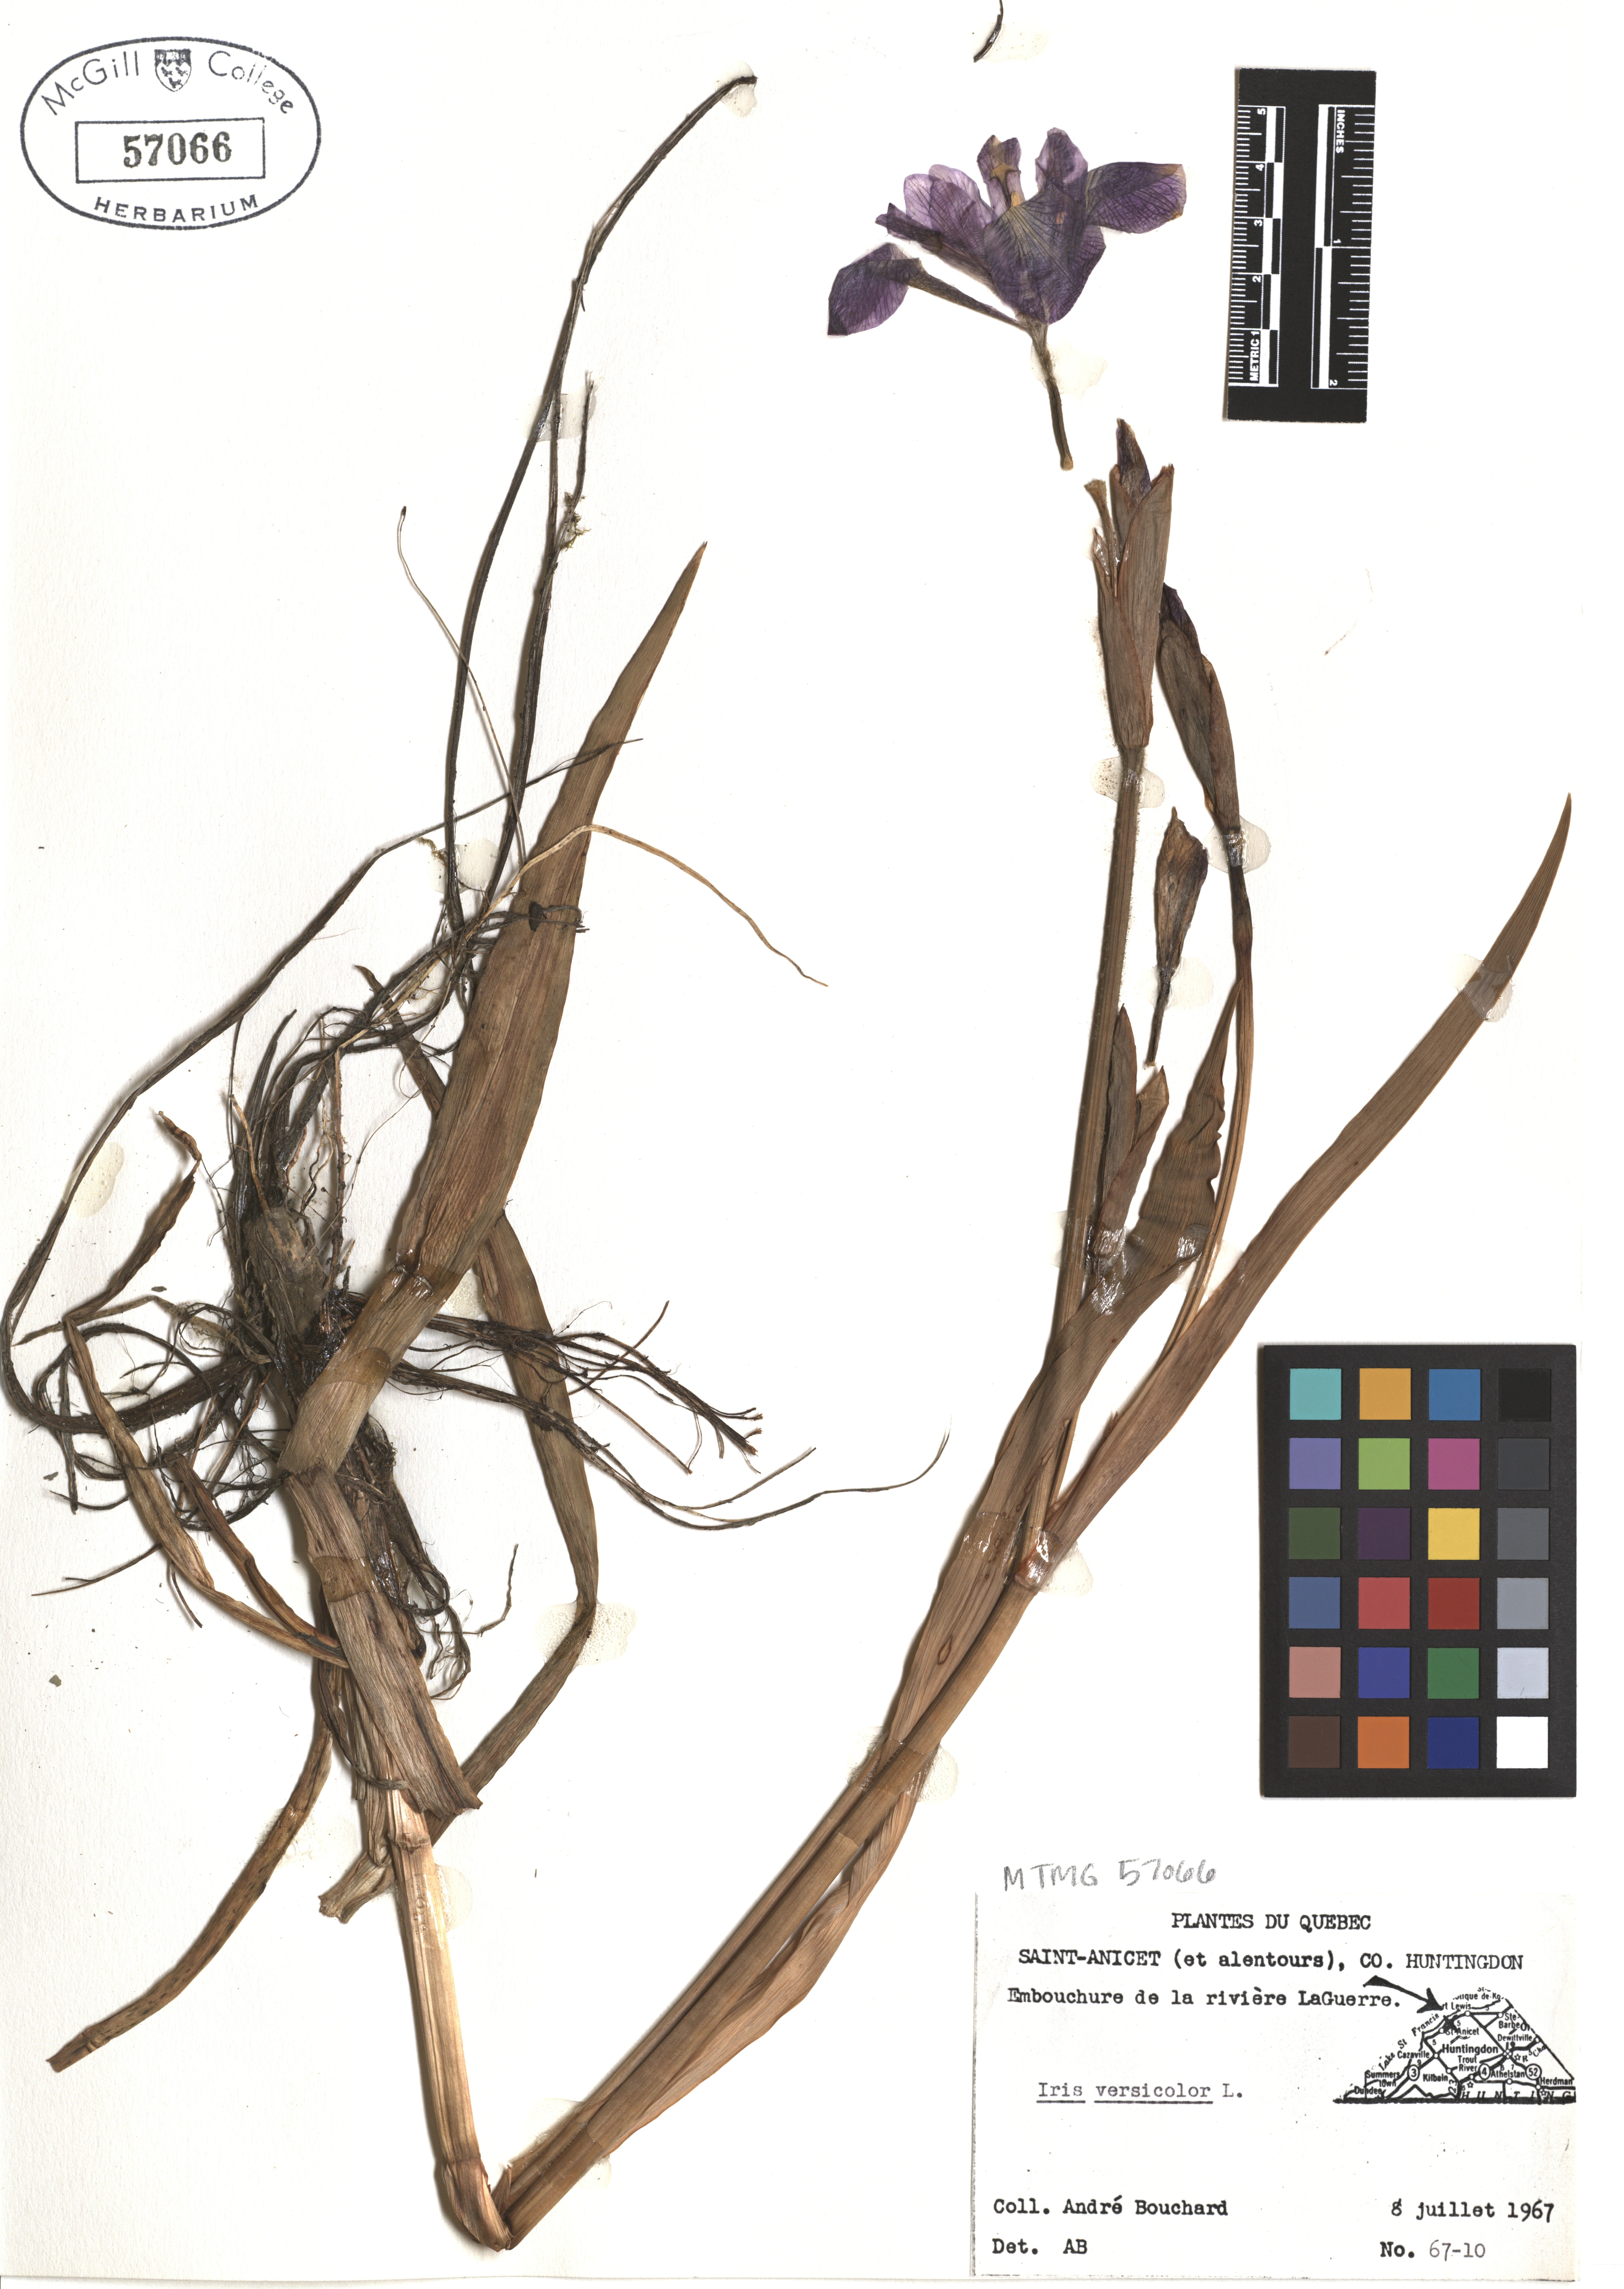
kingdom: Plantae
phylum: Tracheophyta
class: Liliopsida
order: Asparagales
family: Iridaceae
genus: Iris
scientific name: Iris versicolor
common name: Purple iris
